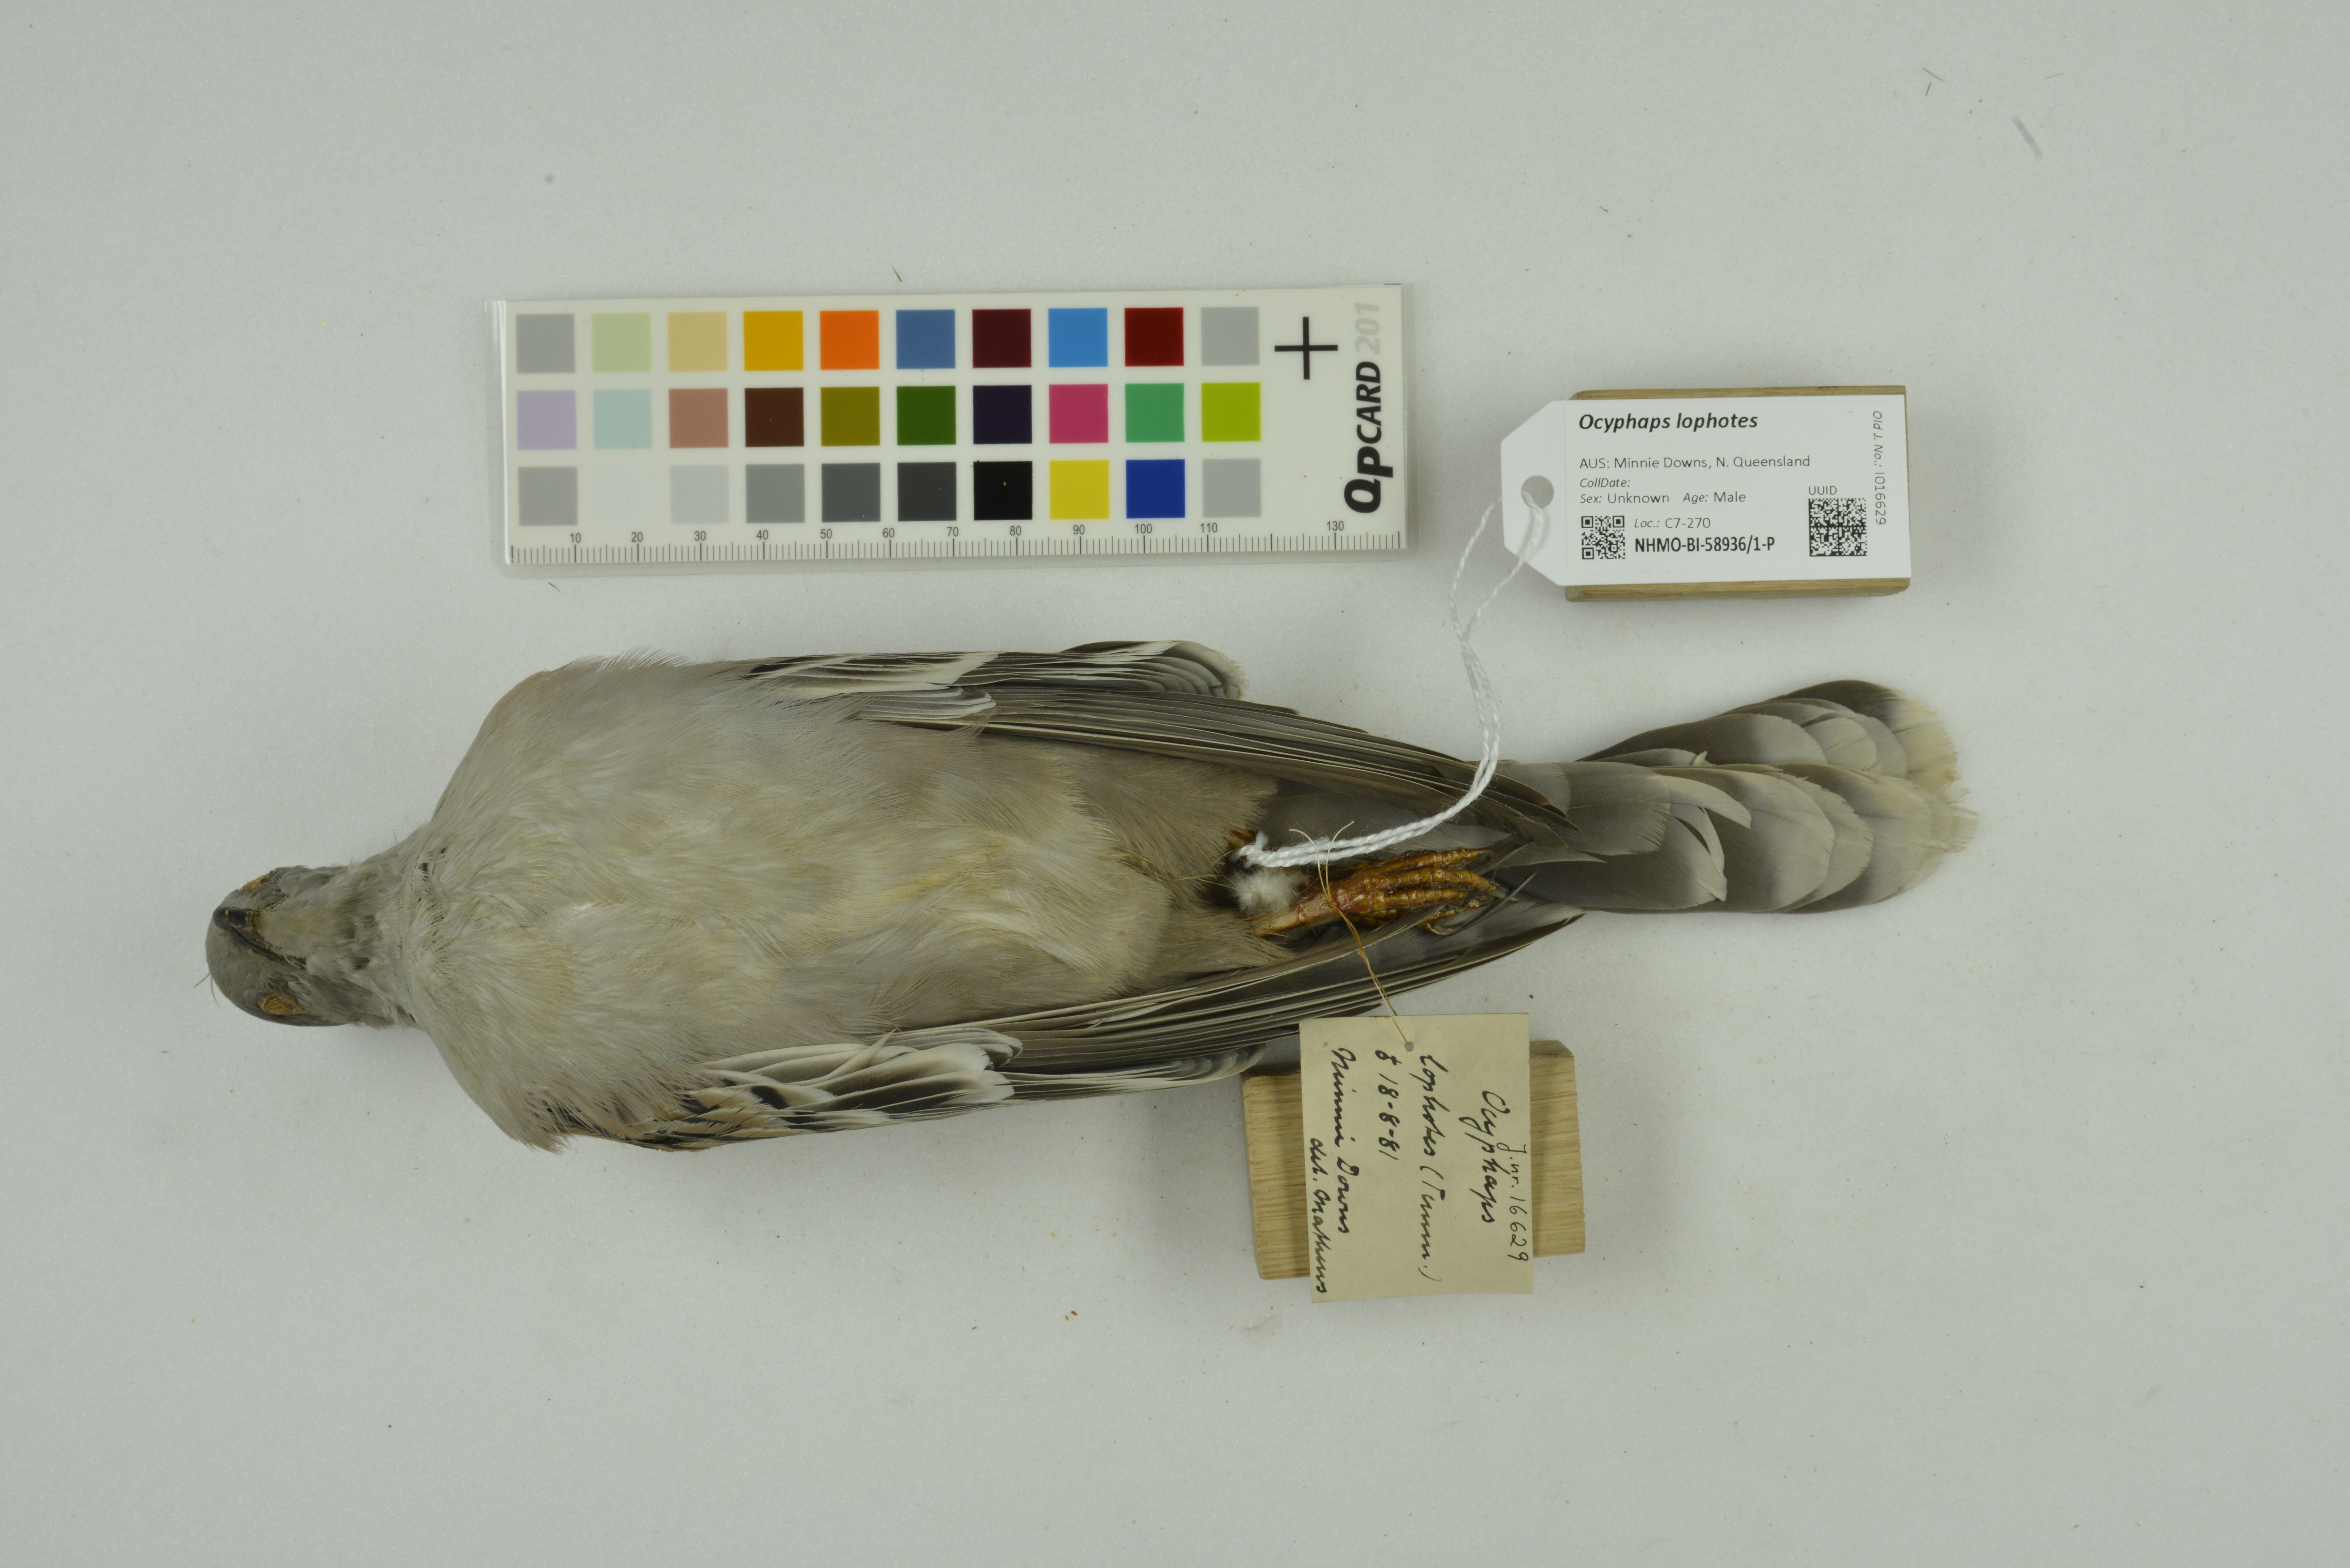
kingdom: Animalia
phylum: Chordata
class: Aves
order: Columbiformes
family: Columbidae
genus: Ocyphaps
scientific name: Ocyphaps lophotes
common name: Crested pigeon
